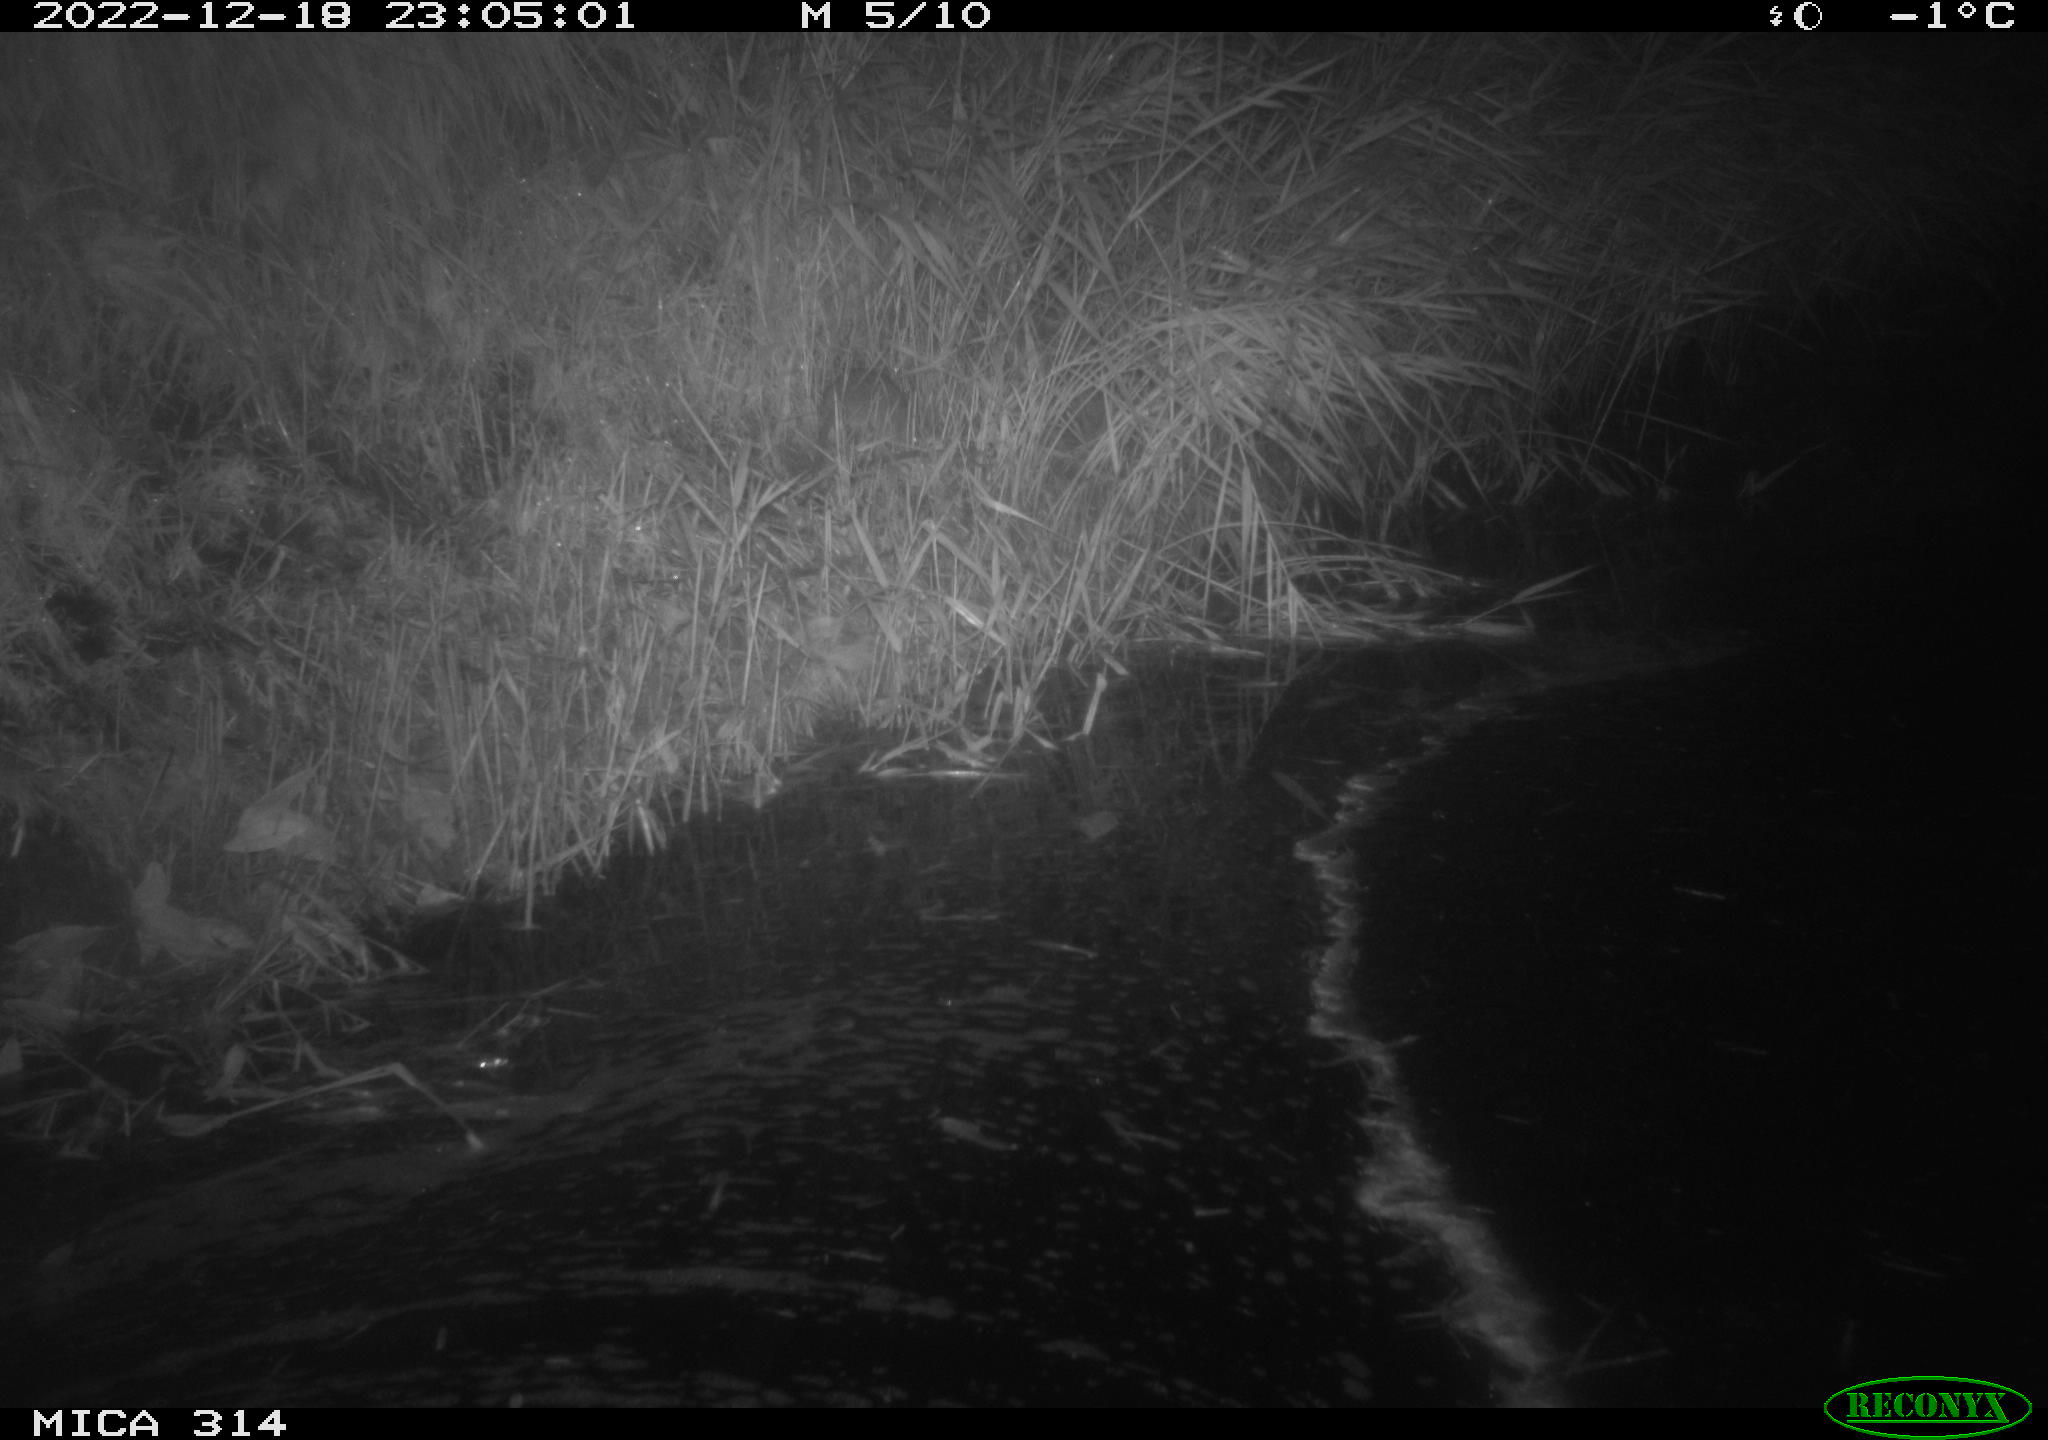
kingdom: Animalia
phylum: Chordata
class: Mammalia
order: Rodentia
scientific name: Rodentia
